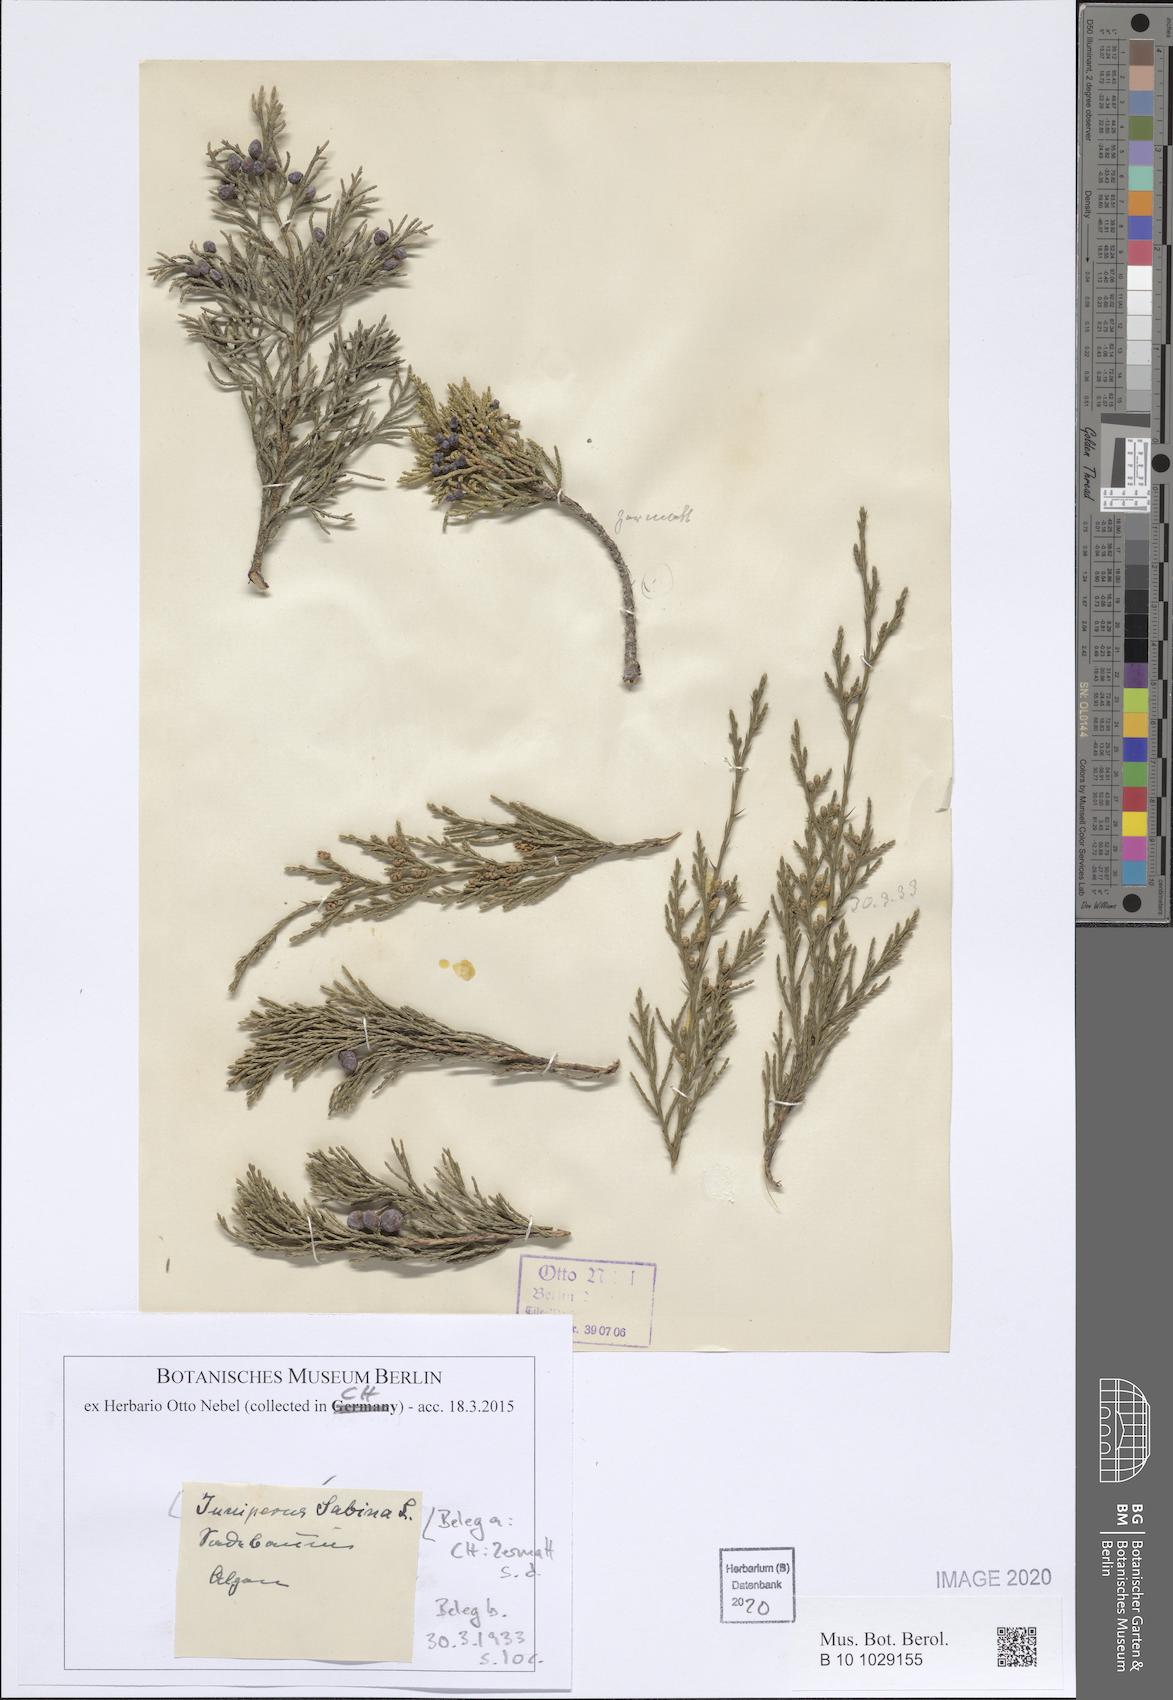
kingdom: Plantae
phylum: Tracheophyta
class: Pinopsida
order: Pinales
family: Cupressaceae
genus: Juniperus
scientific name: Juniperus sabina
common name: Savin
